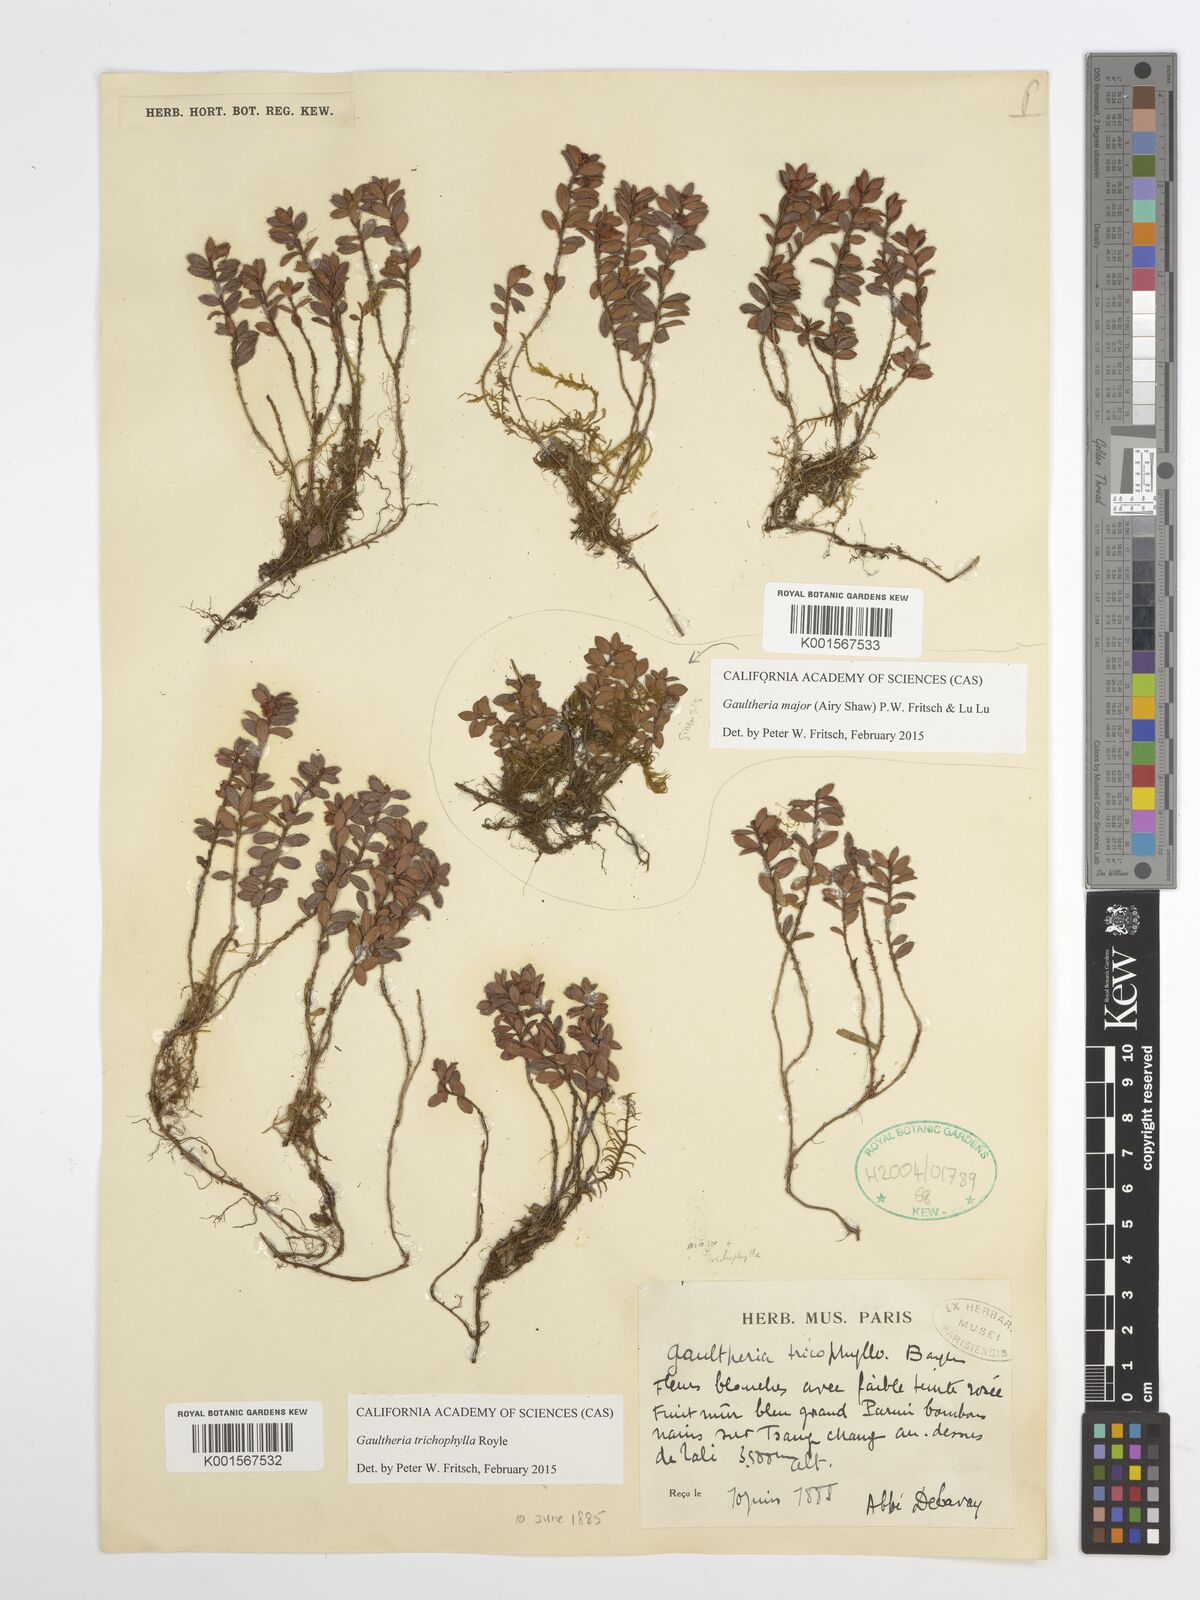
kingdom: Plantae
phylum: Tracheophyta
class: Magnoliopsida
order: Ericales
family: Ericaceae
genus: Gaultheria
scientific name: Gaultheria major
